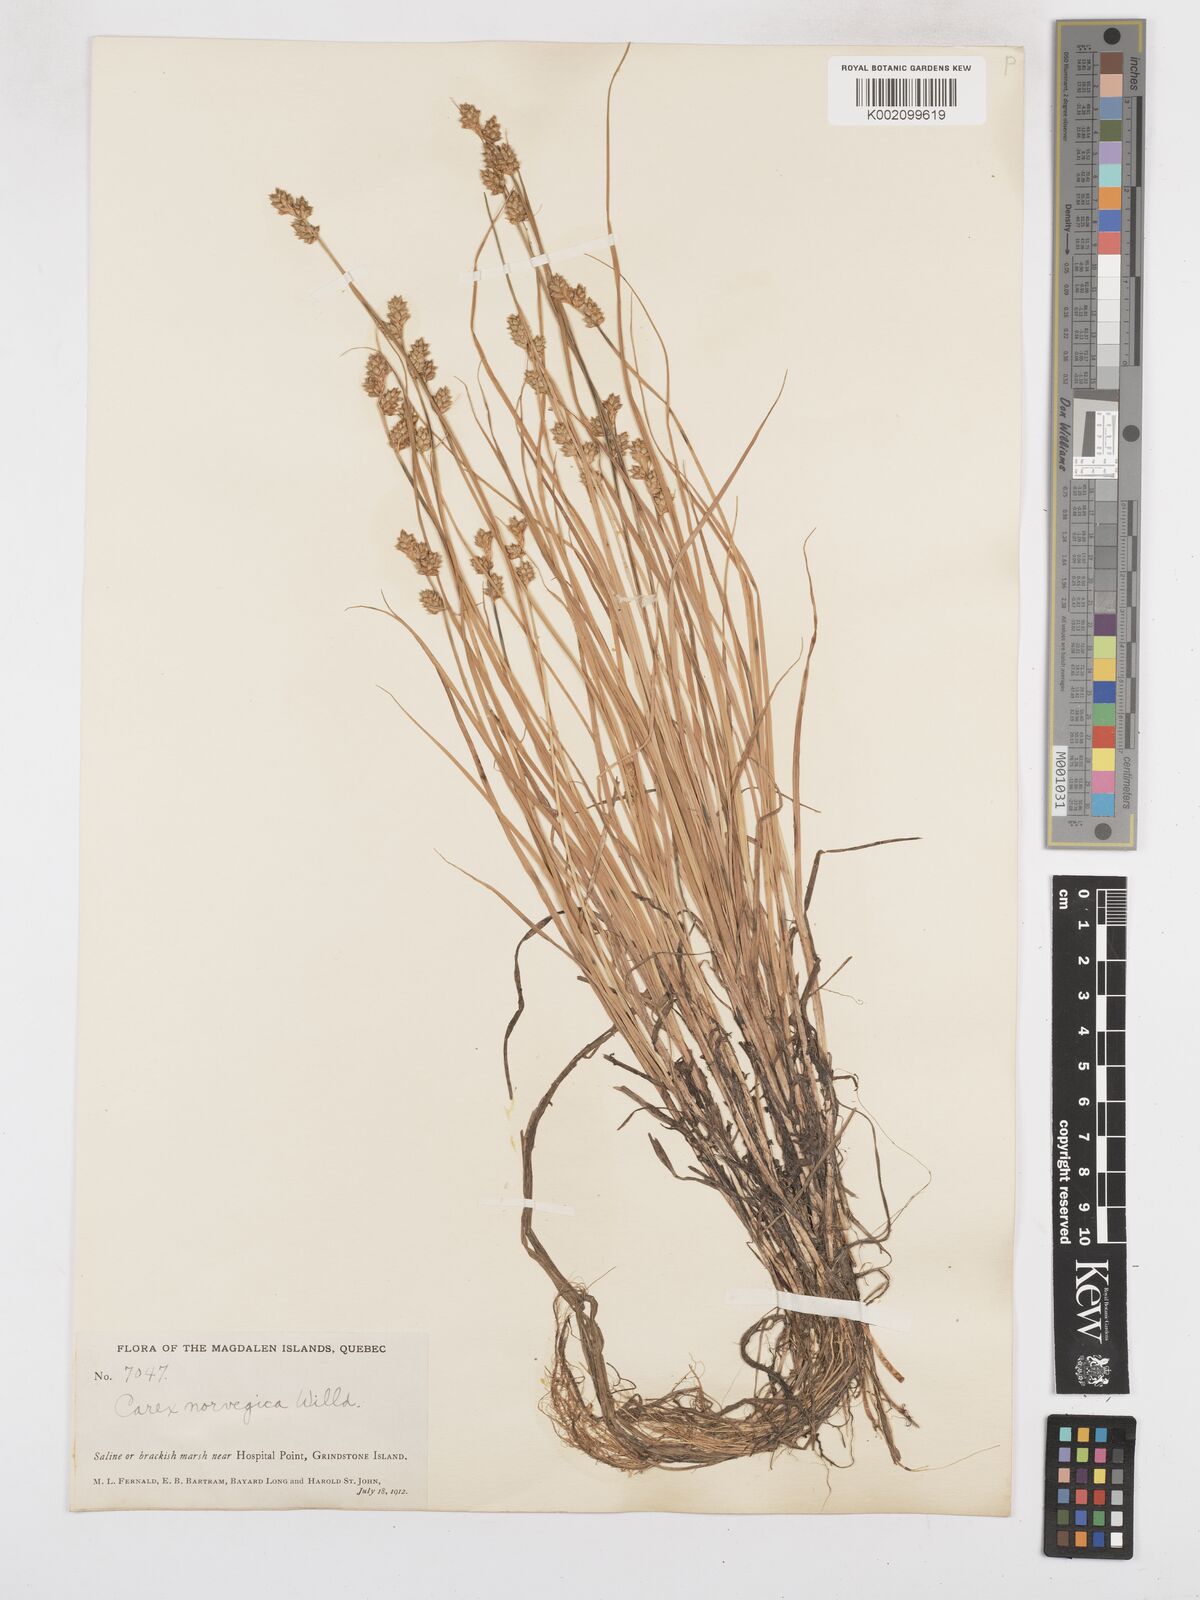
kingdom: Plantae
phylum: Tracheophyta
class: Liliopsida
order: Poales
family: Cyperaceae
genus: Carex
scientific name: Carex mackenziei
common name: Mackenzie's sedge
